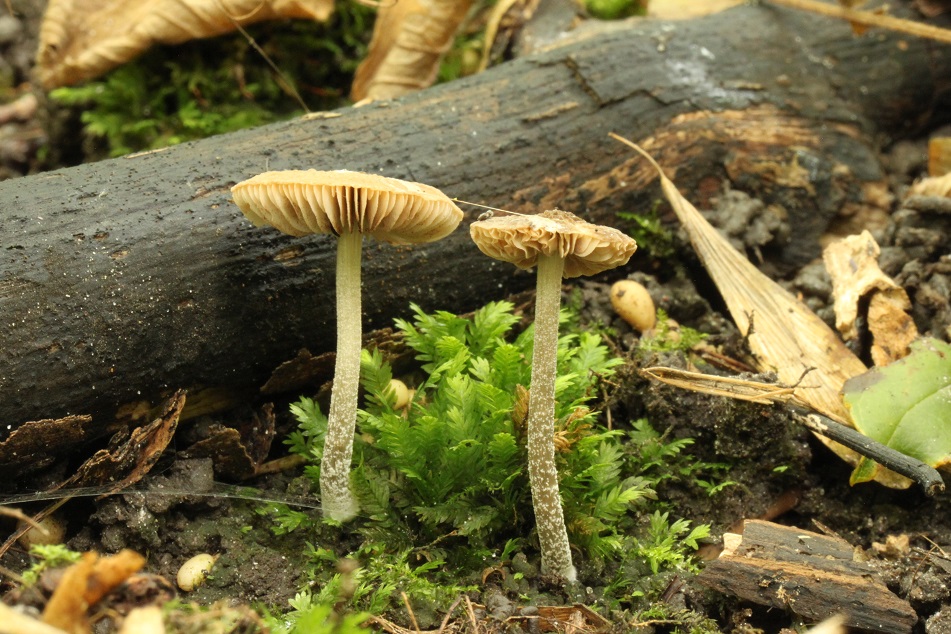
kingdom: Fungi
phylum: Basidiomycota
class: Agaricomycetes
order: Agaricales
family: Pluteaceae
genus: Pluteus
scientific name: Pluteus
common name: gråstokket skærmhat
